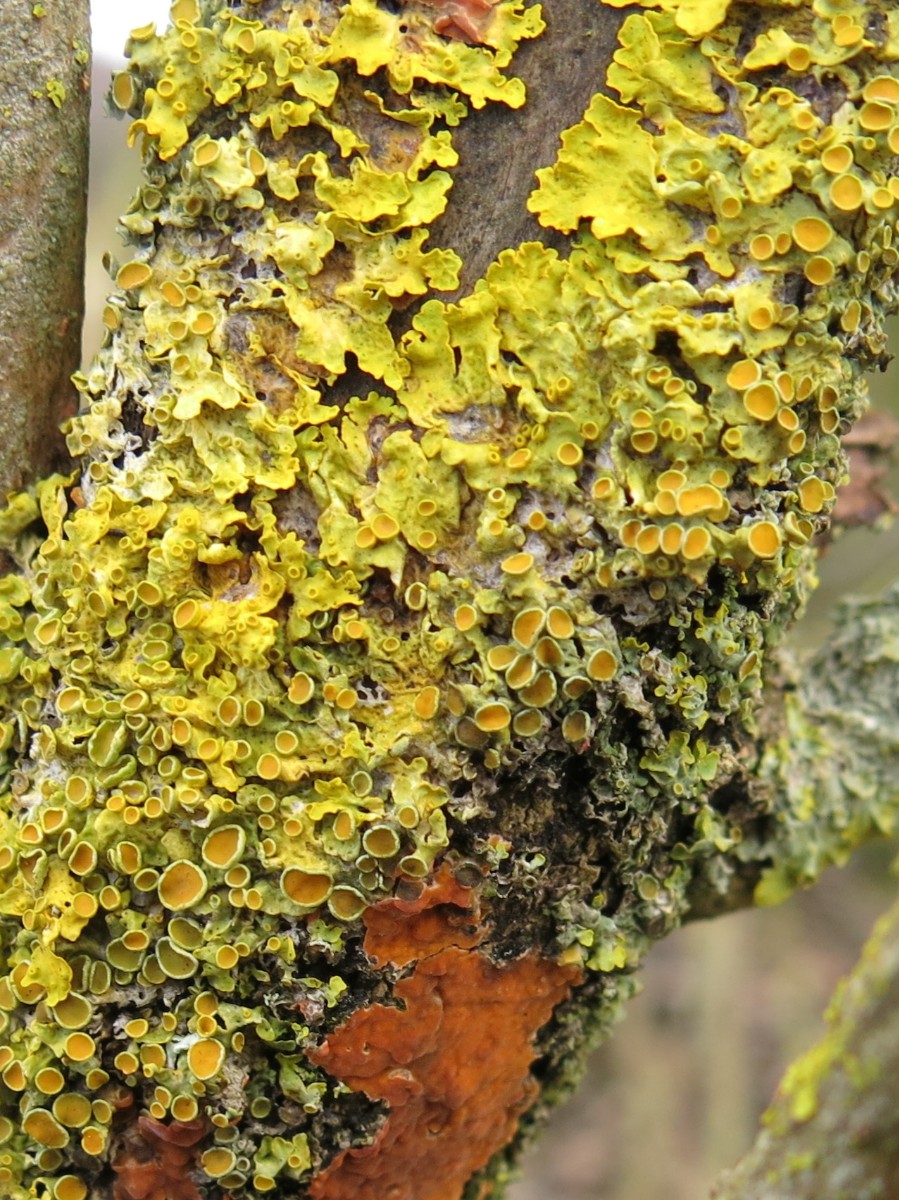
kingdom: Fungi
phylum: Ascomycota
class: Lecanoromycetes
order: Teloschistales
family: Teloschistaceae
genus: Xanthoria
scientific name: Xanthoria parietina
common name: almindelig væggelav
